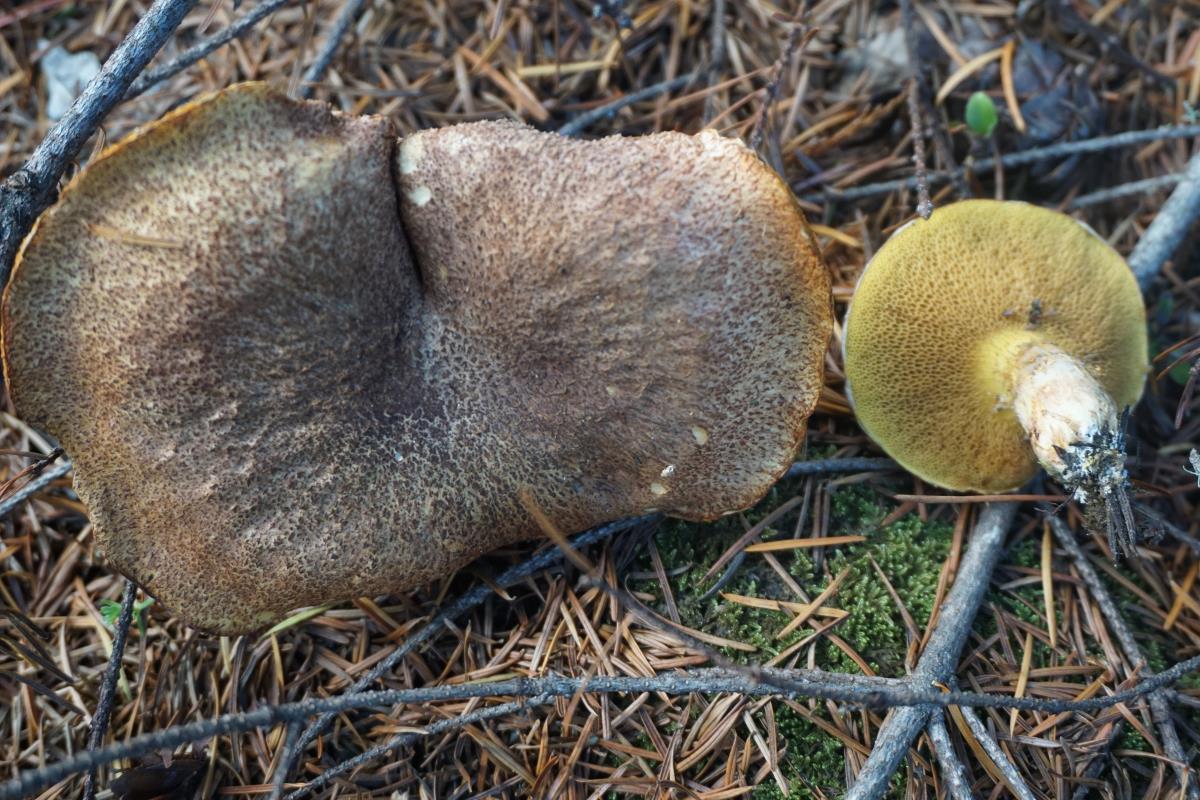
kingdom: Fungi
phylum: Basidiomycota
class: Agaricomycetes
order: Boletales
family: Suillaceae
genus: Suillus
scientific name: Suillus lakei
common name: Western painted suillus
